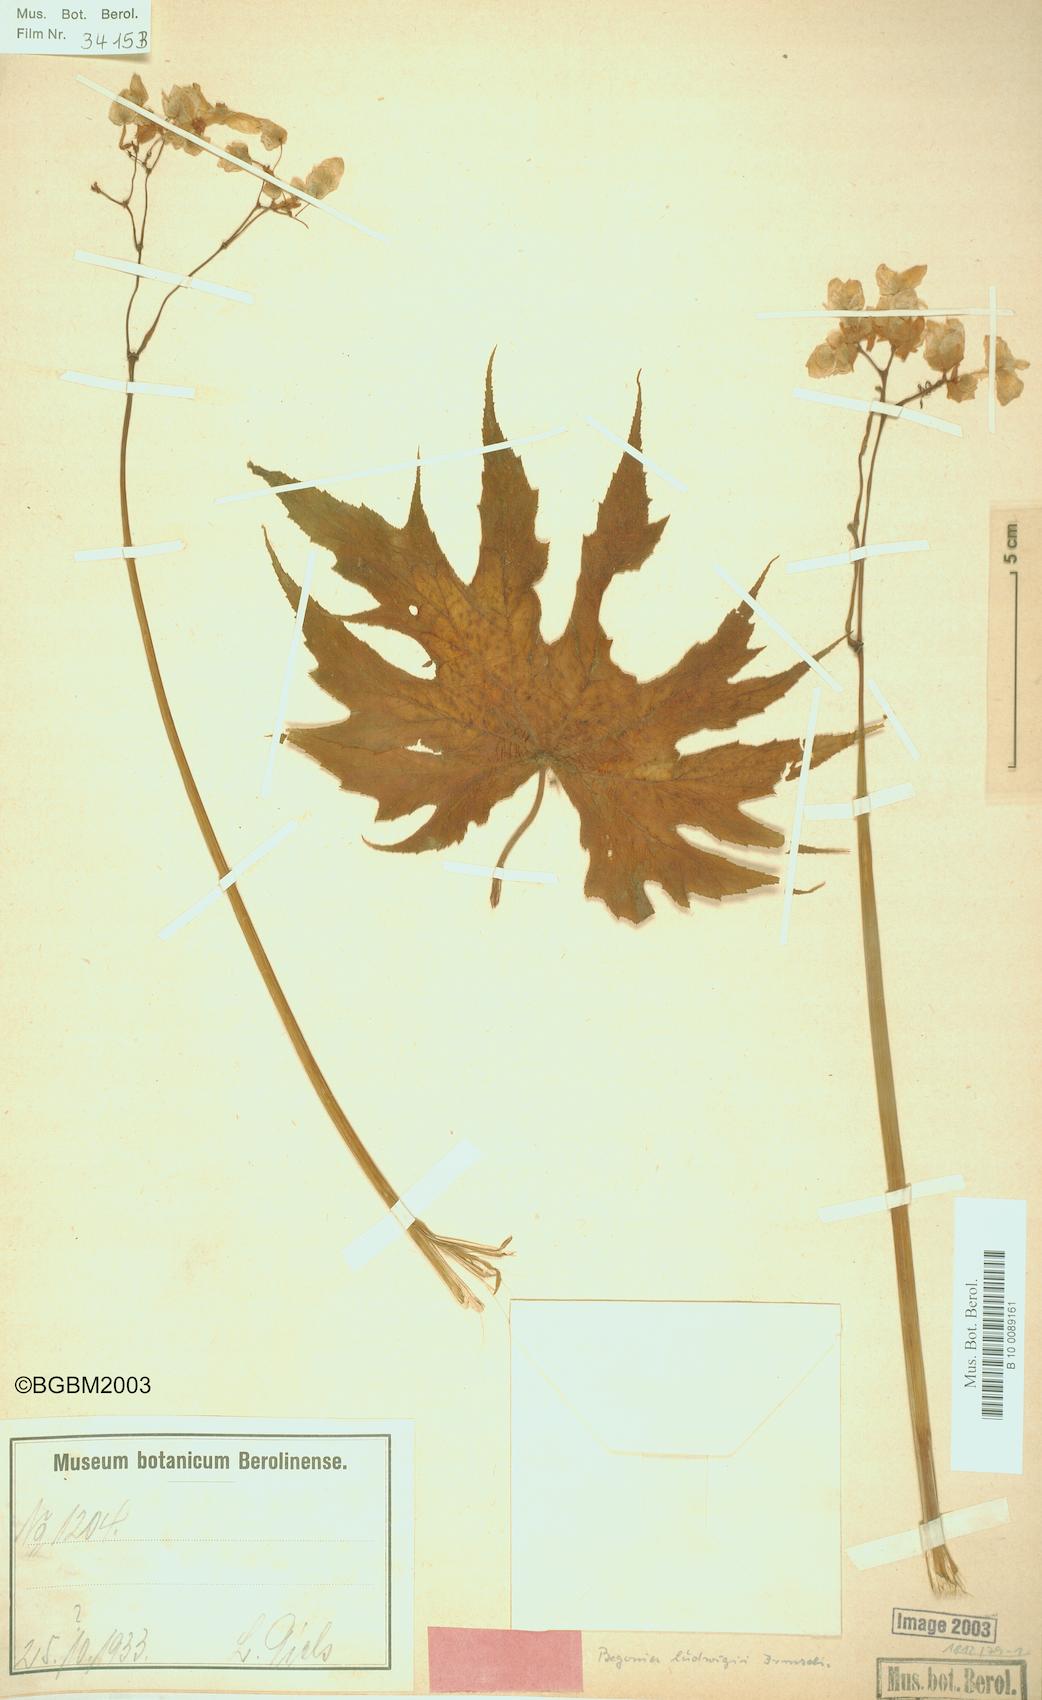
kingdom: Plantae
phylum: Tracheophyta
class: Magnoliopsida
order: Cucurbitales
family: Begoniaceae
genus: Begonia
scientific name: Begonia ludwigii
